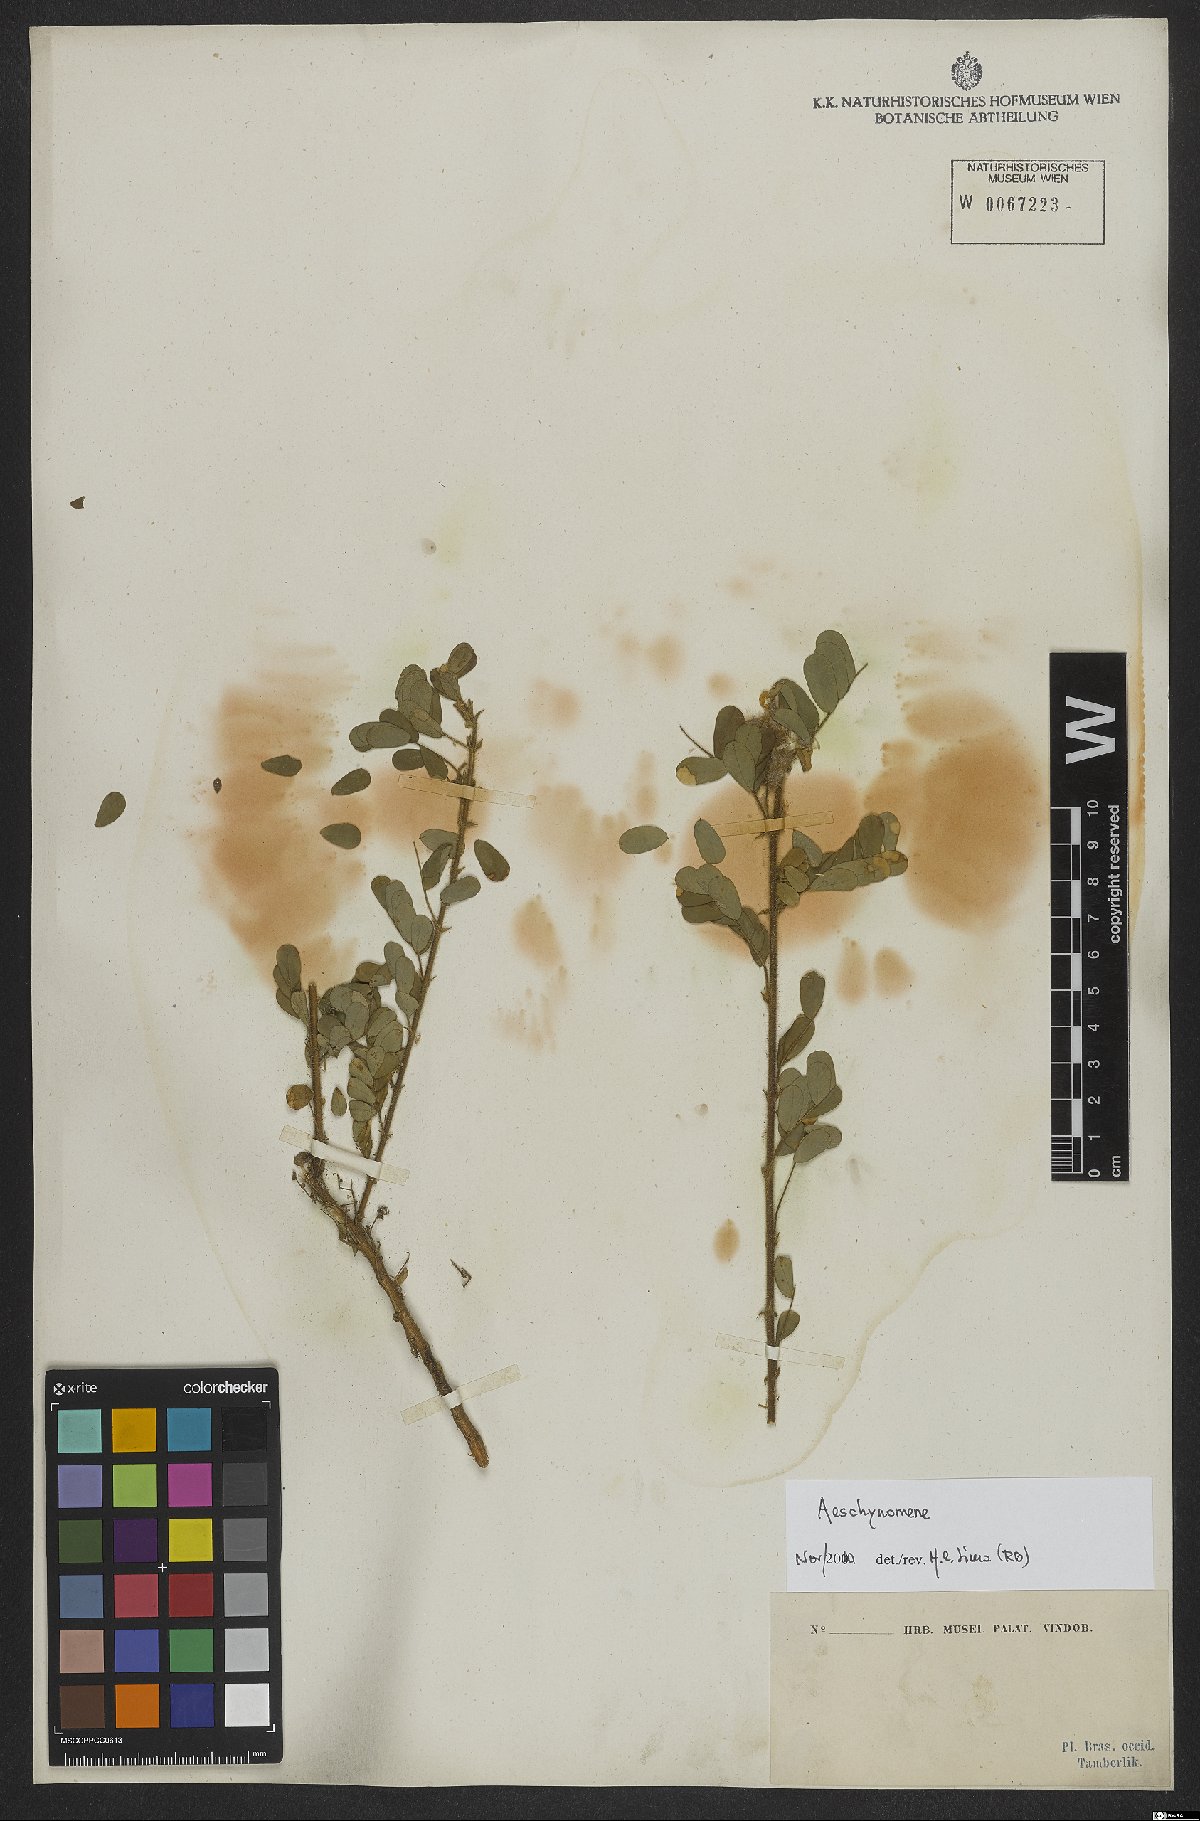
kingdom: Plantae
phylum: Tracheophyta
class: Magnoliopsida
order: Fabales
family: Fabaceae
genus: Aeschynomene
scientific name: Aeschynomene
